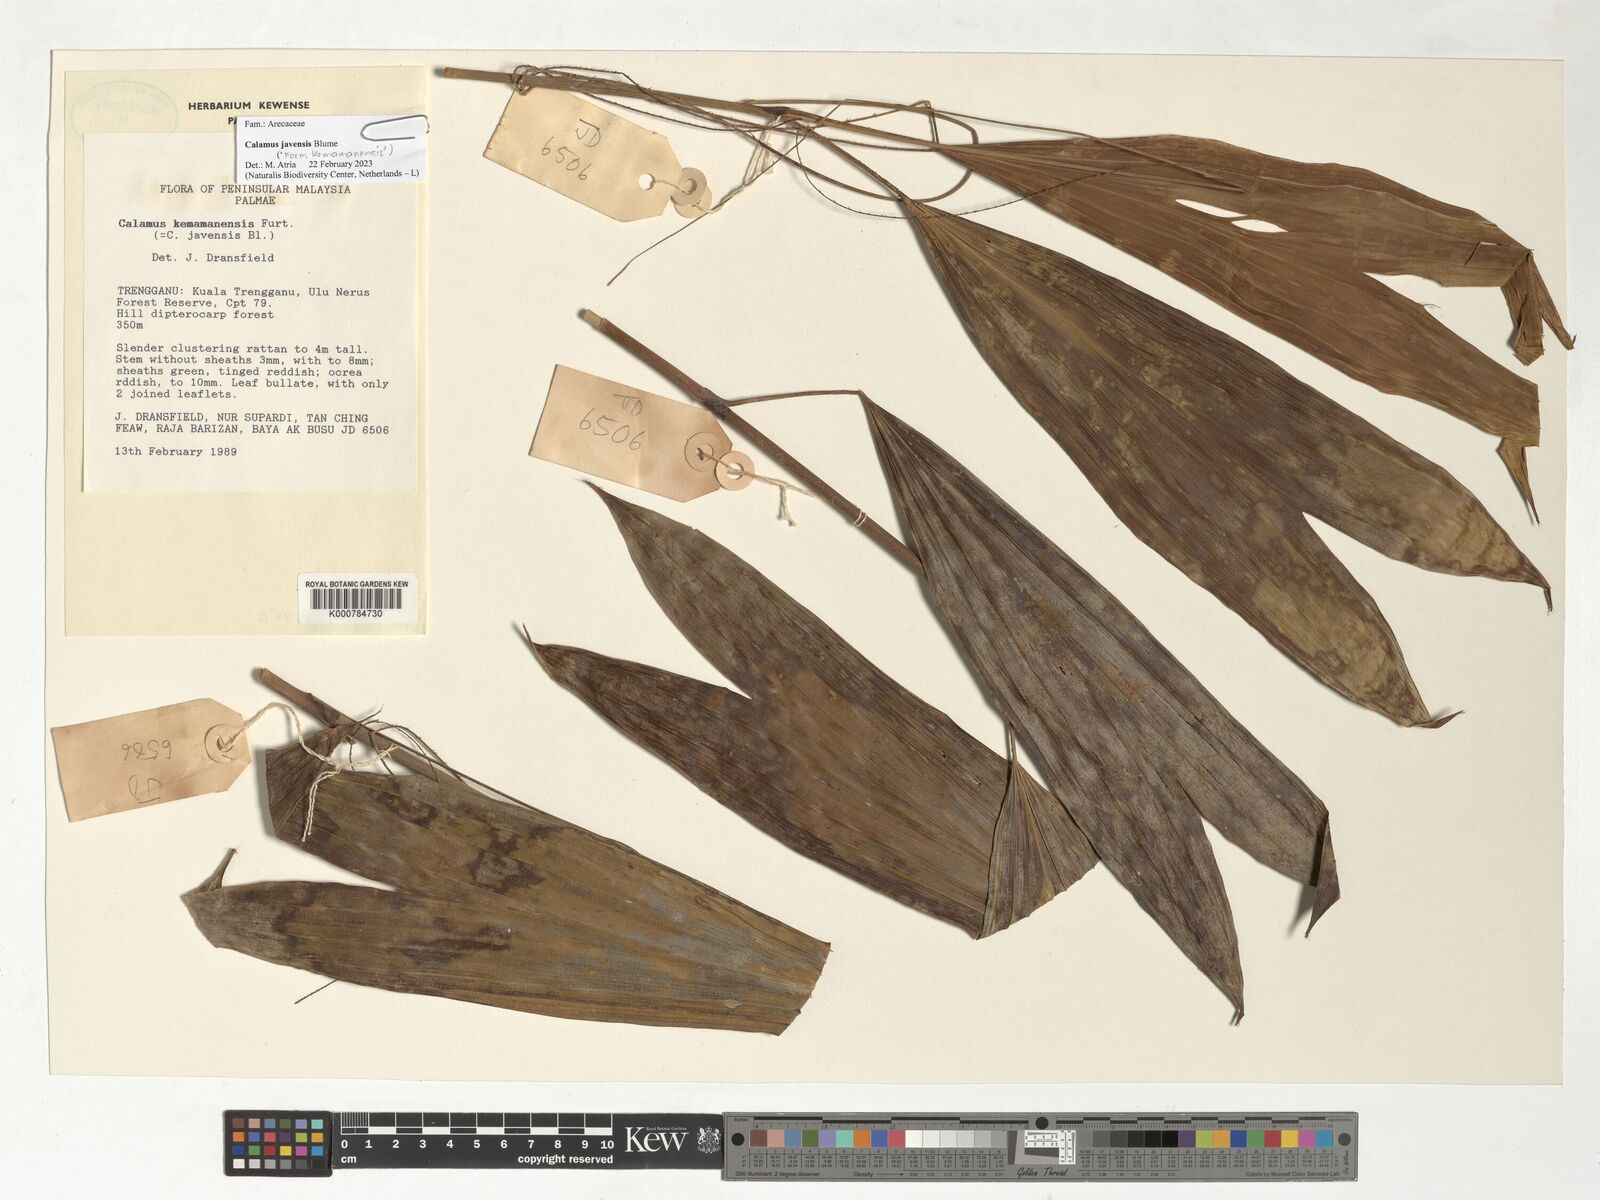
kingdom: Plantae
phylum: Tracheophyta
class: Liliopsida
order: Arecales
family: Arecaceae
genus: Calamus
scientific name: Calamus javensis
